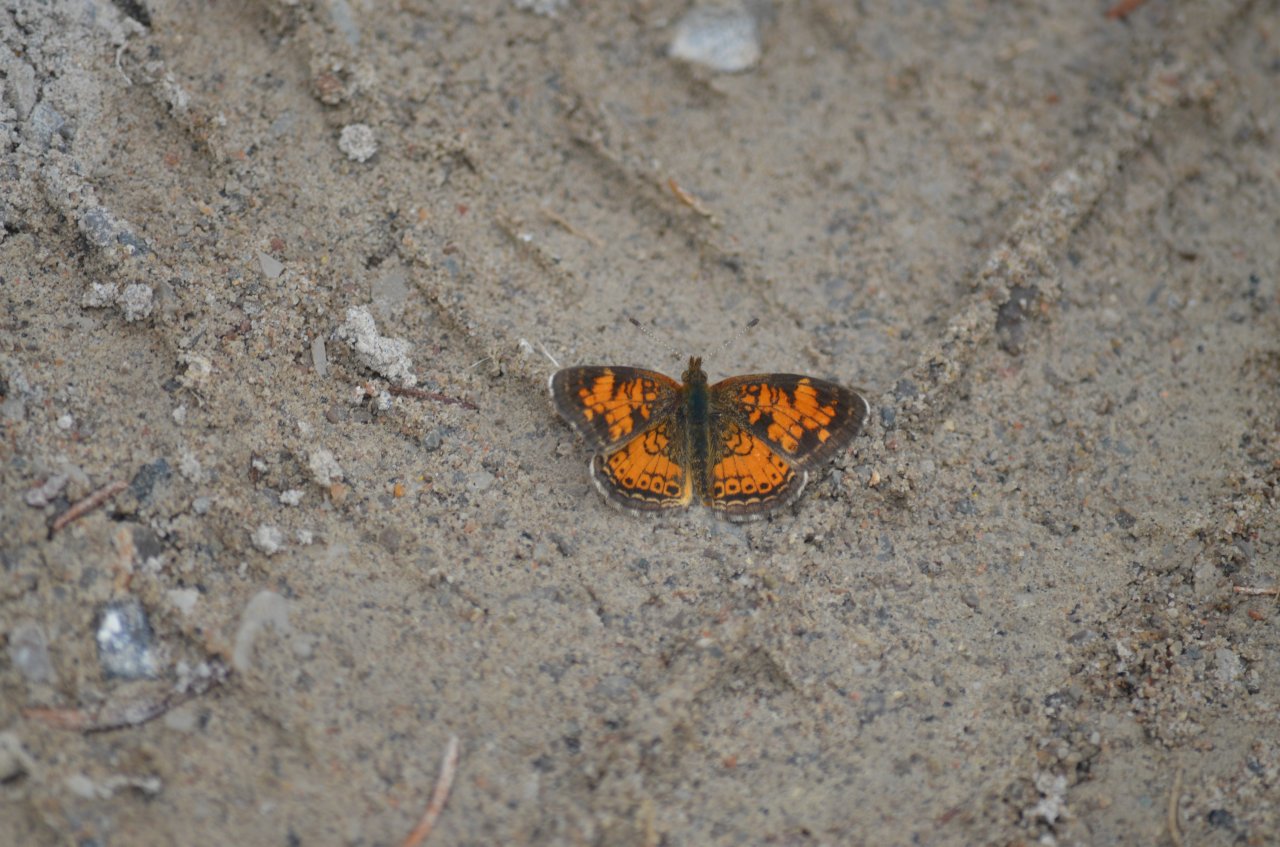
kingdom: Animalia
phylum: Arthropoda
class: Insecta
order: Lepidoptera
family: Nymphalidae
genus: Phyciodes
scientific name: Phyciodes tharos
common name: Pearl Crescent
